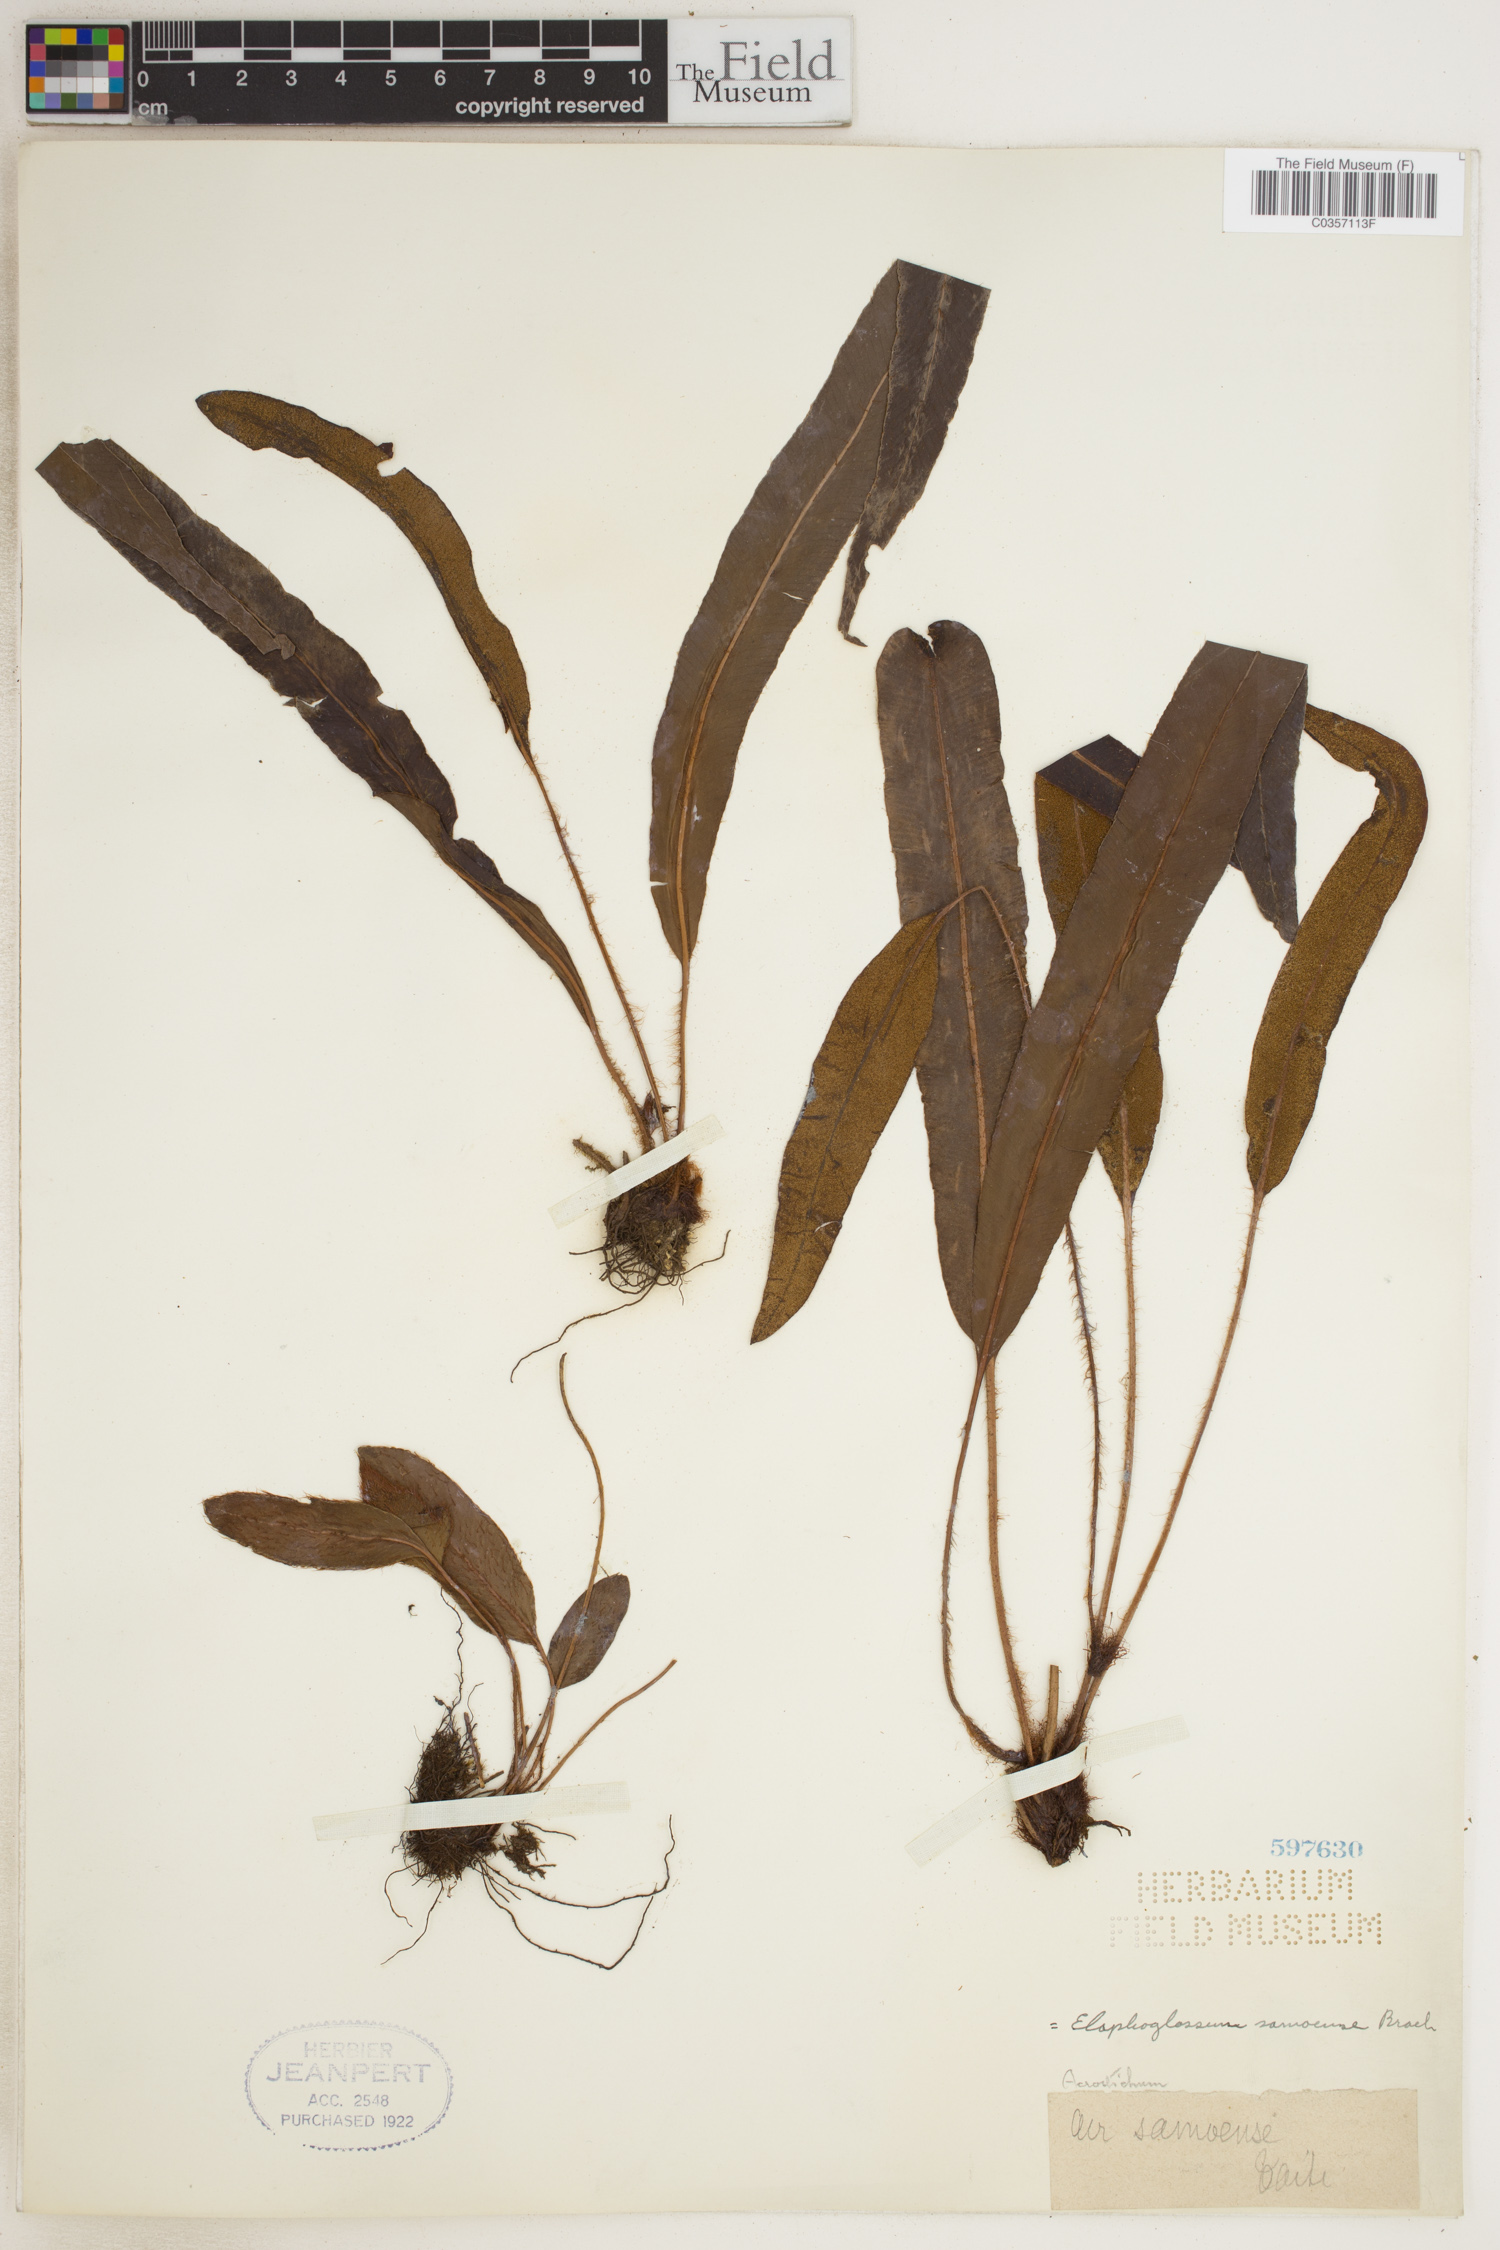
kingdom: Plantae
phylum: Tracheophyta
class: Polypodiopsida
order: Polypodiales
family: Dryopteridaceae
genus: Elaphoglossum
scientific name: Elaphoglossum samoense
